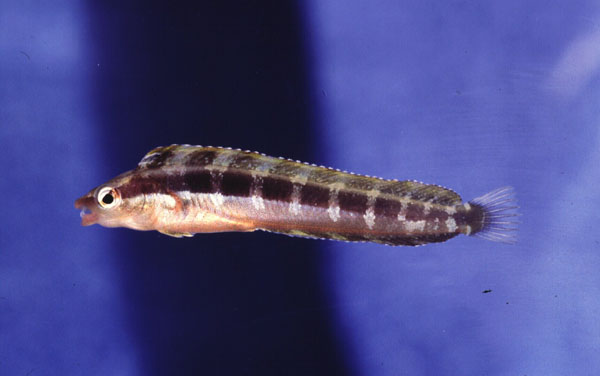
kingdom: Animalia
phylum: Chordata
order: Perciformes
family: Blenniidae
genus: Aspidontus
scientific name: Aspidontus dussumieri
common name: Lance blenny
